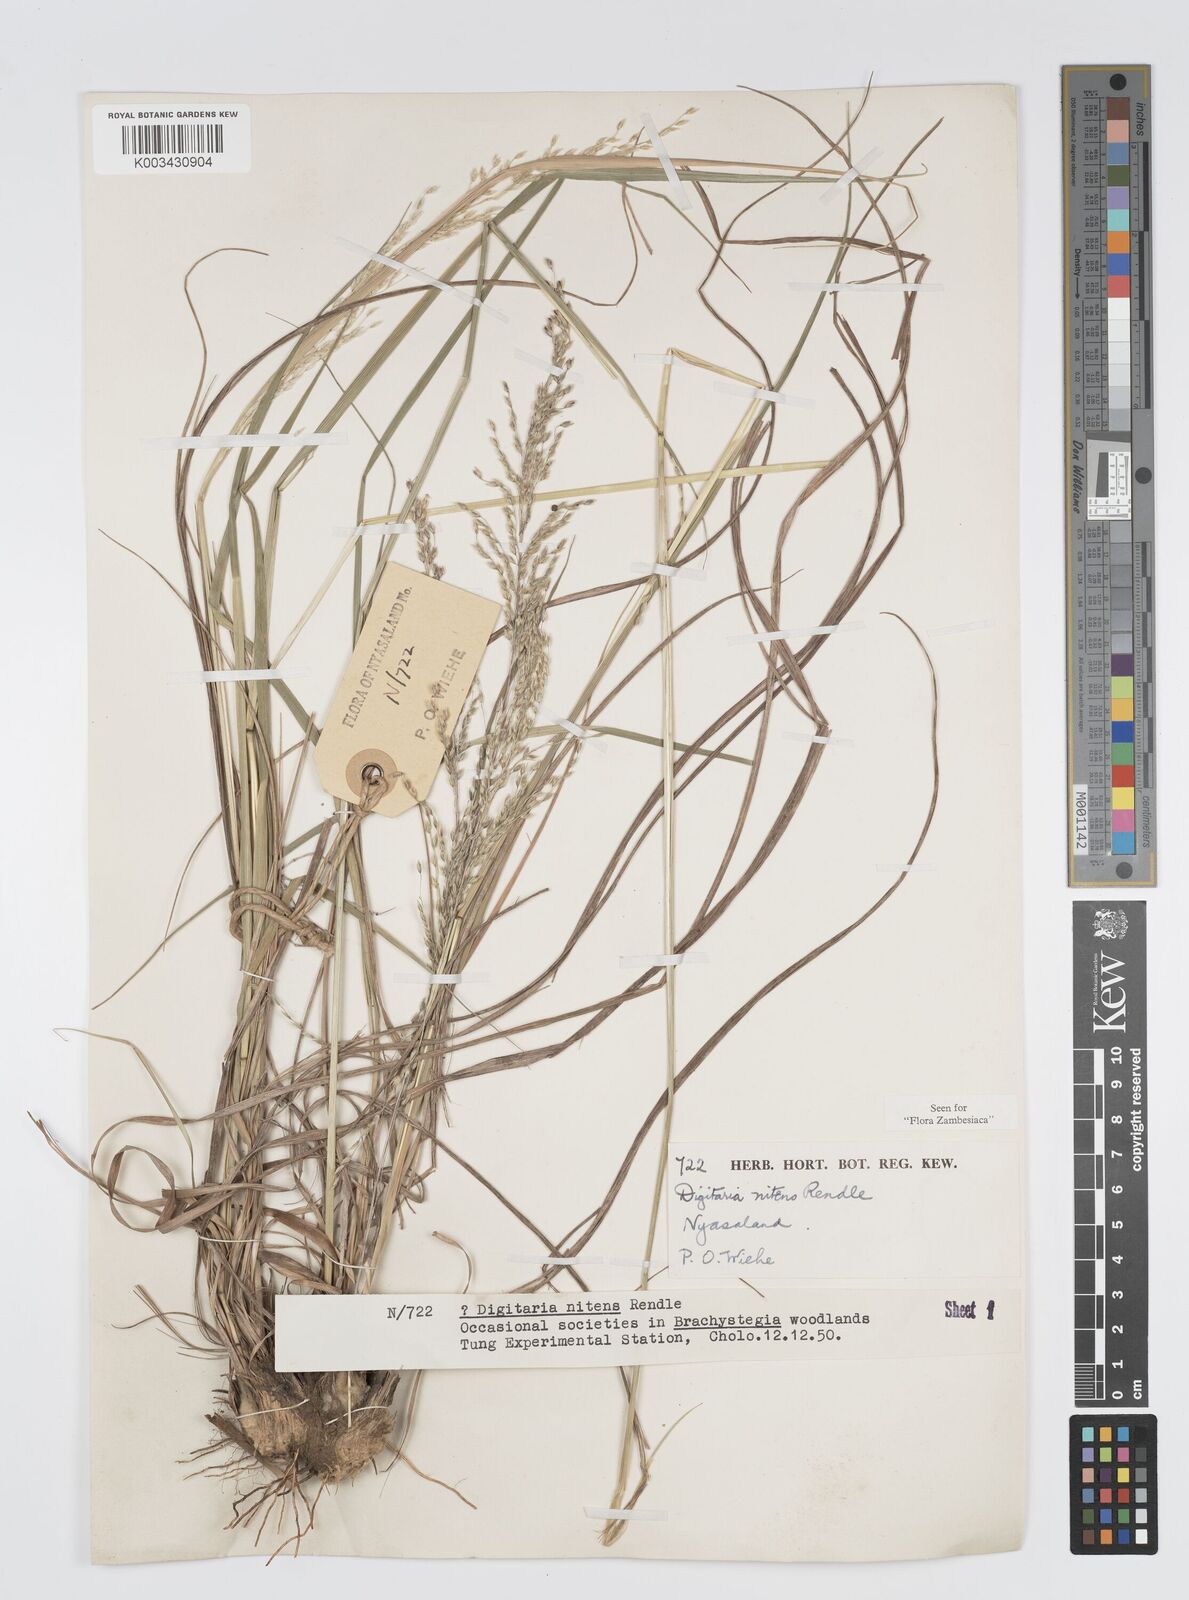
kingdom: Plantae
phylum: Tracheophyta
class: Liliopsida
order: Poales
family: Poaceae
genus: Digitaria
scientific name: Digitaria flaccida
